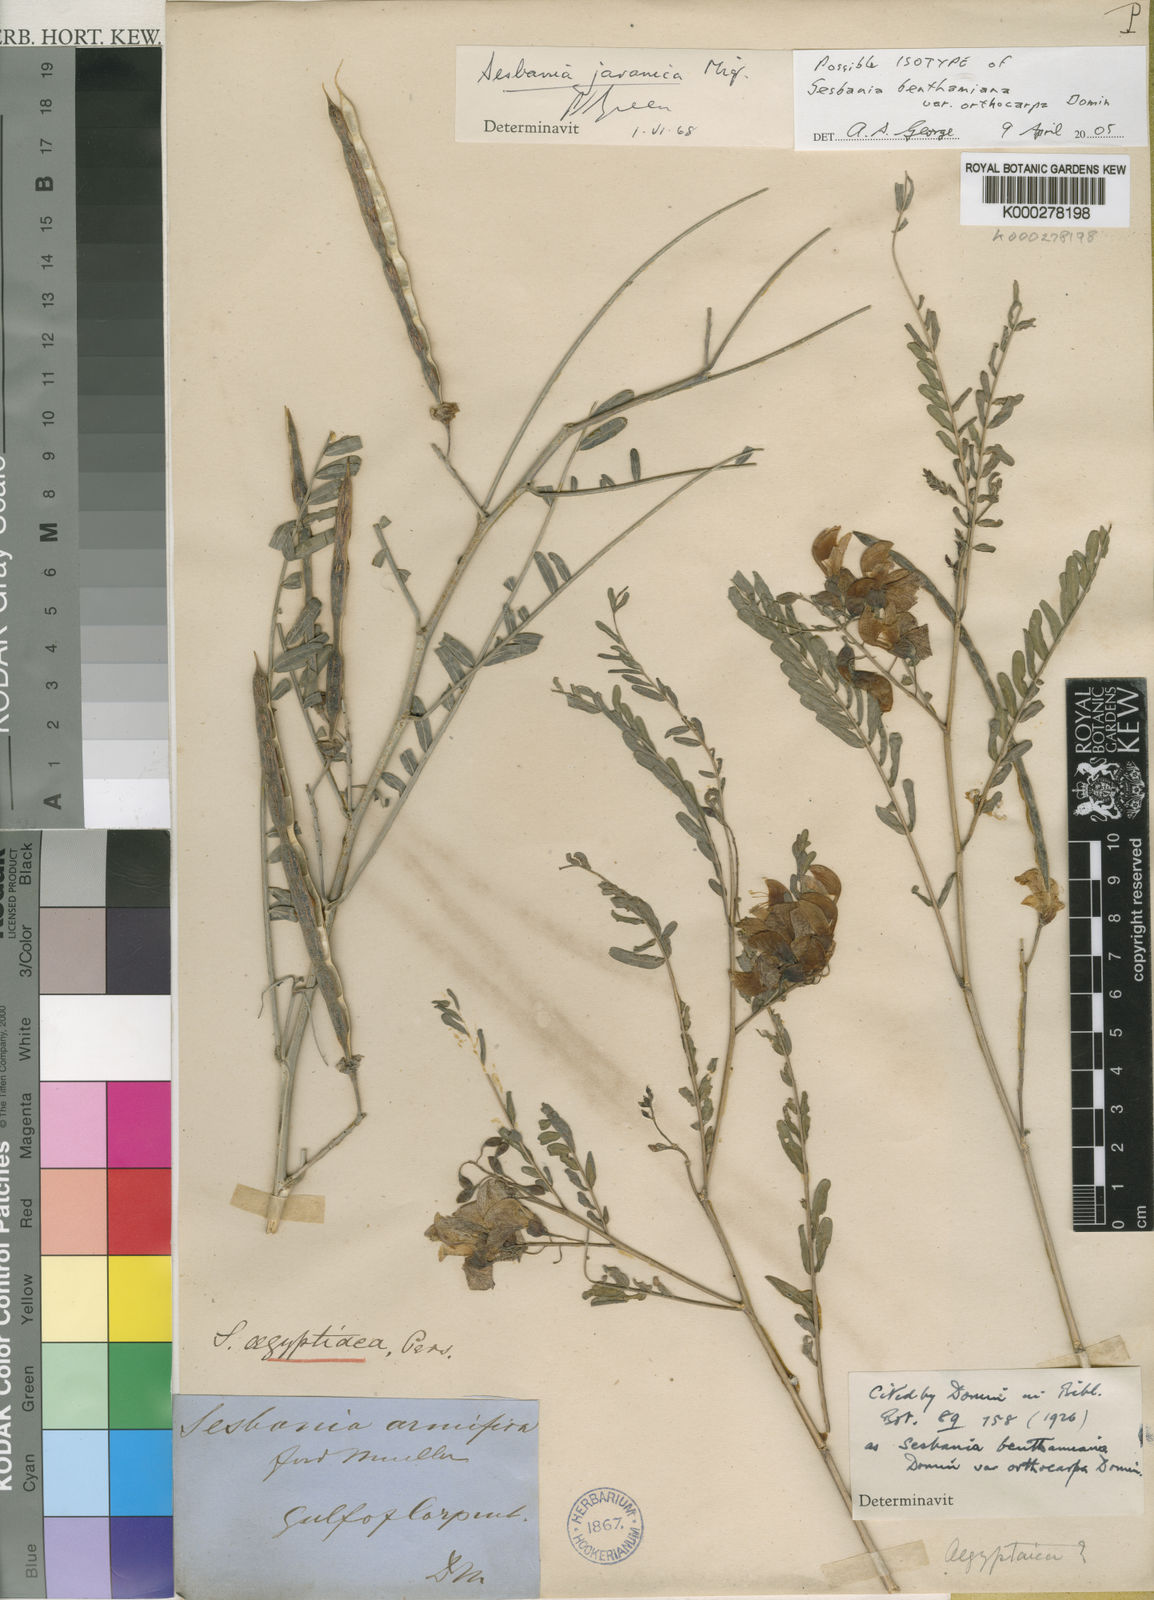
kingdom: Plantae
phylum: Tracheophyta
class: Magnoliopsida
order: Fabales
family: Fabaceae
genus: Sesbania
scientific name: Sesbania javanica
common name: Sesbania-pea
